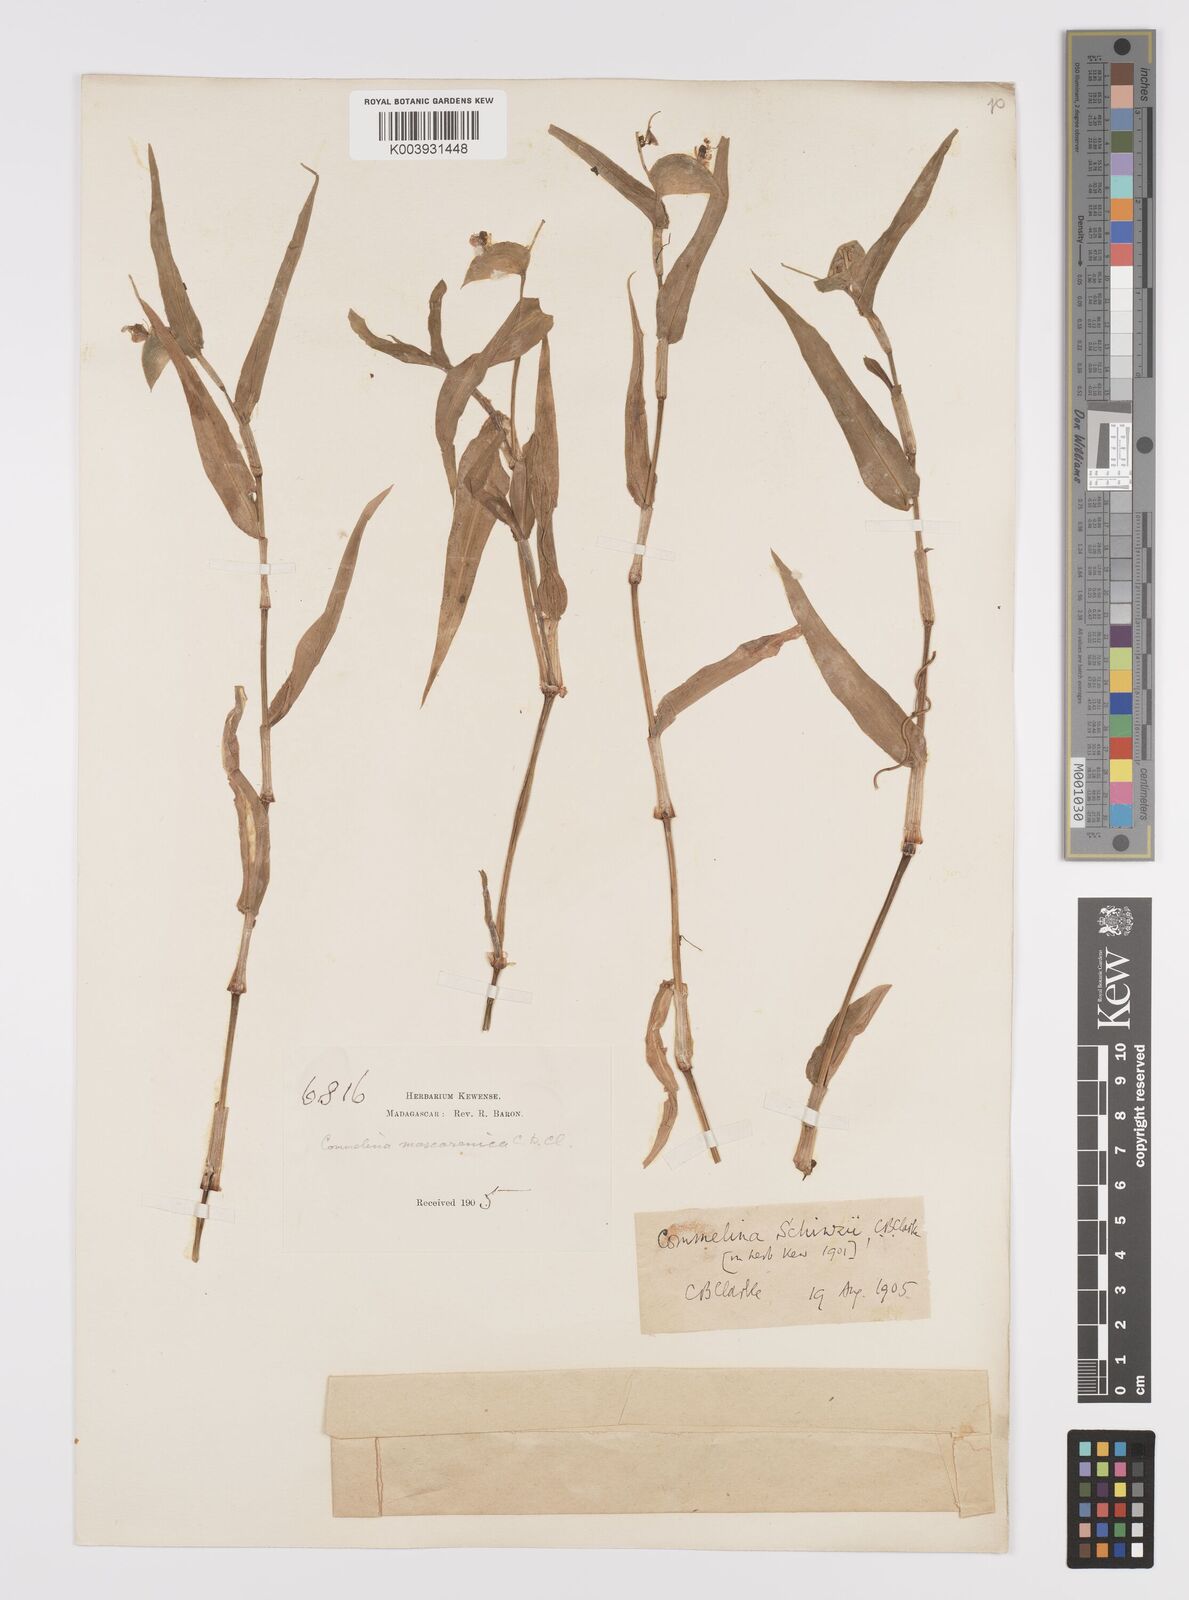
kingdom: Plantae
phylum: Tracheophyta
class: Liliopsida
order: Commelinales
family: Commelinaceae
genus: Commelina
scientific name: Commelina mascarenica
